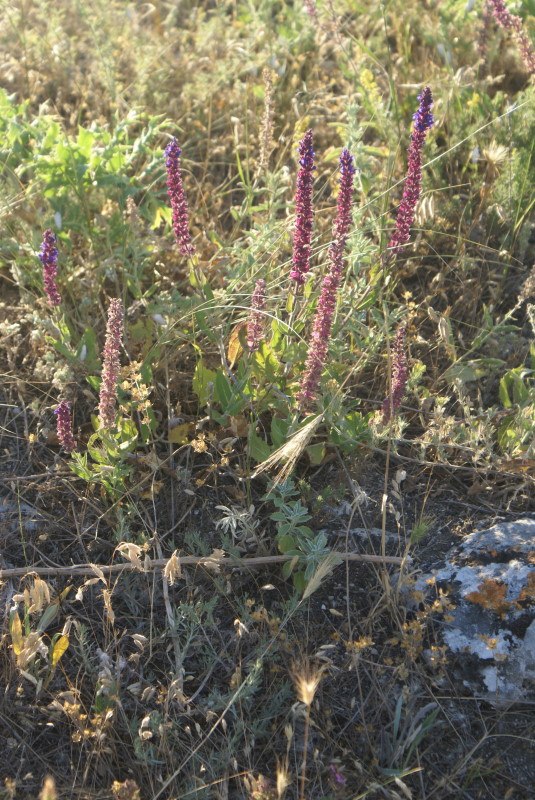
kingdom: Plantae
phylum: Tracheophyta
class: Magnoliopsida
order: Lamiales
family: Lamiaceae
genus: Salvia
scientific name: Salvia
